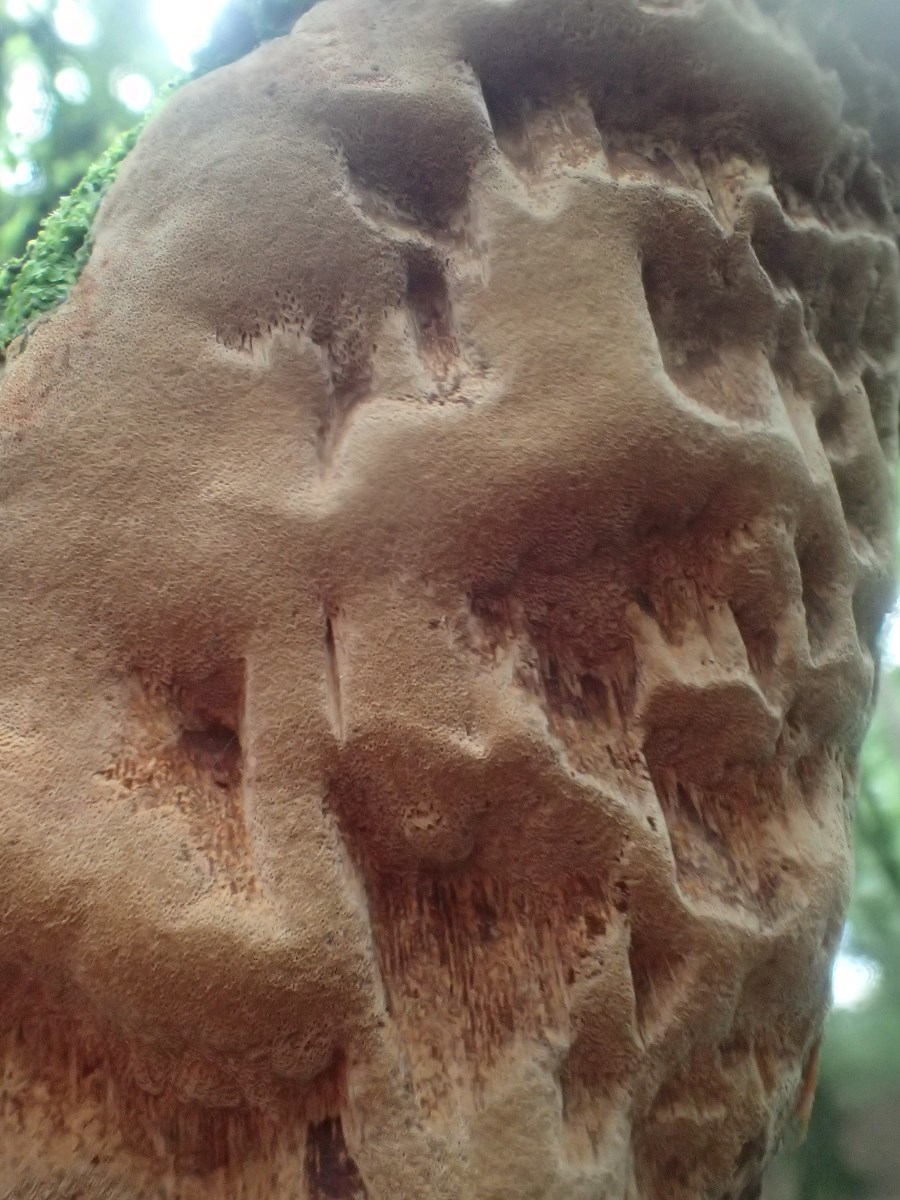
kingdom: Fungi
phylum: Basidiomycota
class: Agaricomycetes
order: Hymenochaetales
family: Hymenochaetaceae
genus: Fuscoporia
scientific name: Fuscoporia ferrea
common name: skorpe-ildporesvamp
